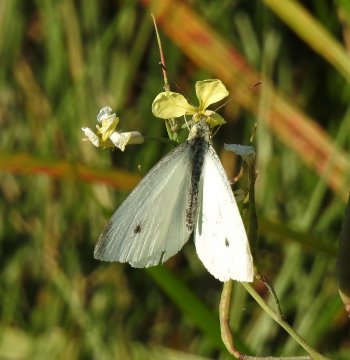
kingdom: Animalia
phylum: Arthropoda
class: Insecta
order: Lepidoptera
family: Pieridae
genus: Pieris
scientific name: Pieris rapae
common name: Cabbage White
